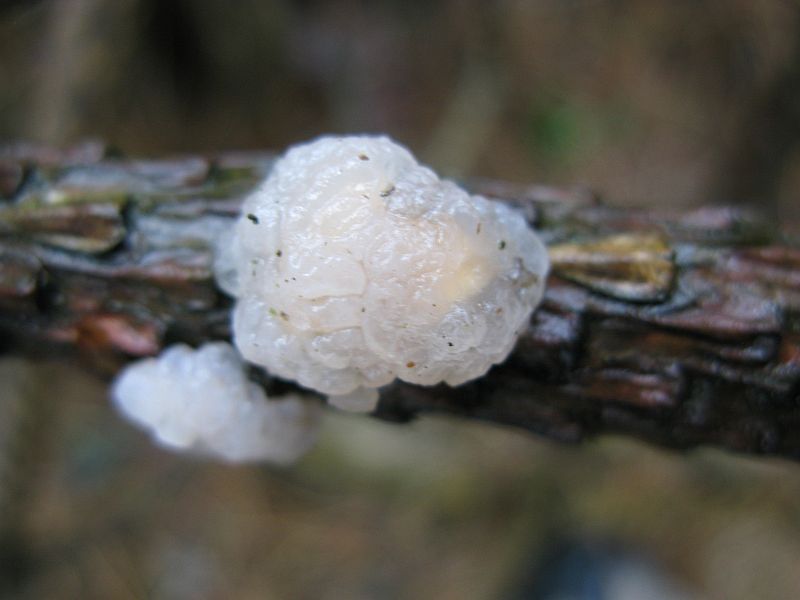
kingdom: Fungi
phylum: Basidiomycota
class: Tremellomycetes
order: Tremellales
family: Naemateliaceae
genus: Naematelia
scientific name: Naematelia encephala
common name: fyrre-bævresvamp
